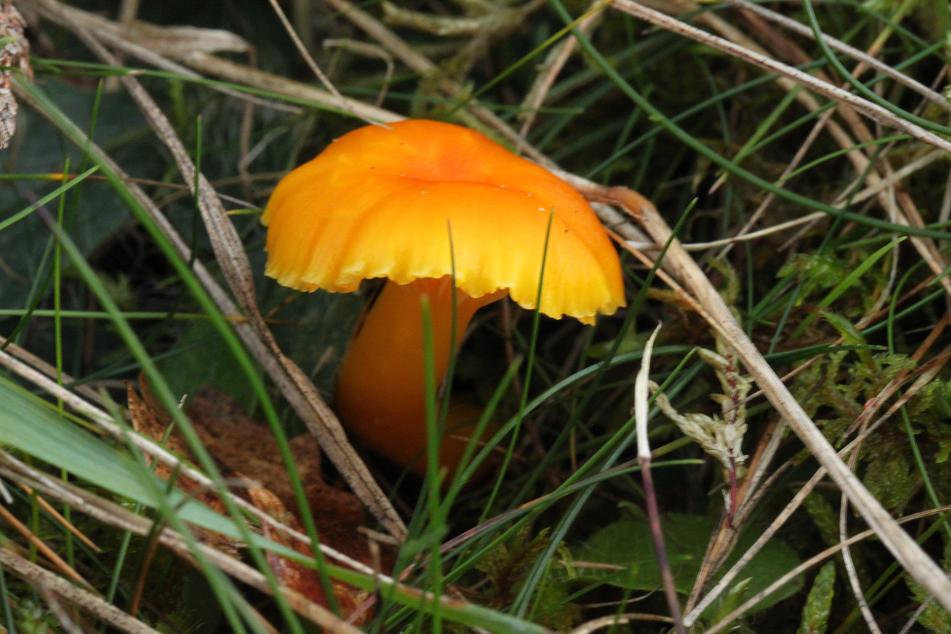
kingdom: Fungi
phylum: Basidiomycota
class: Agaricomycetes
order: Agaricales
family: Hygrophoraceae
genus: Hygrocybe
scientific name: Hygrocybe ceracea
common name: voksgul vokshat
